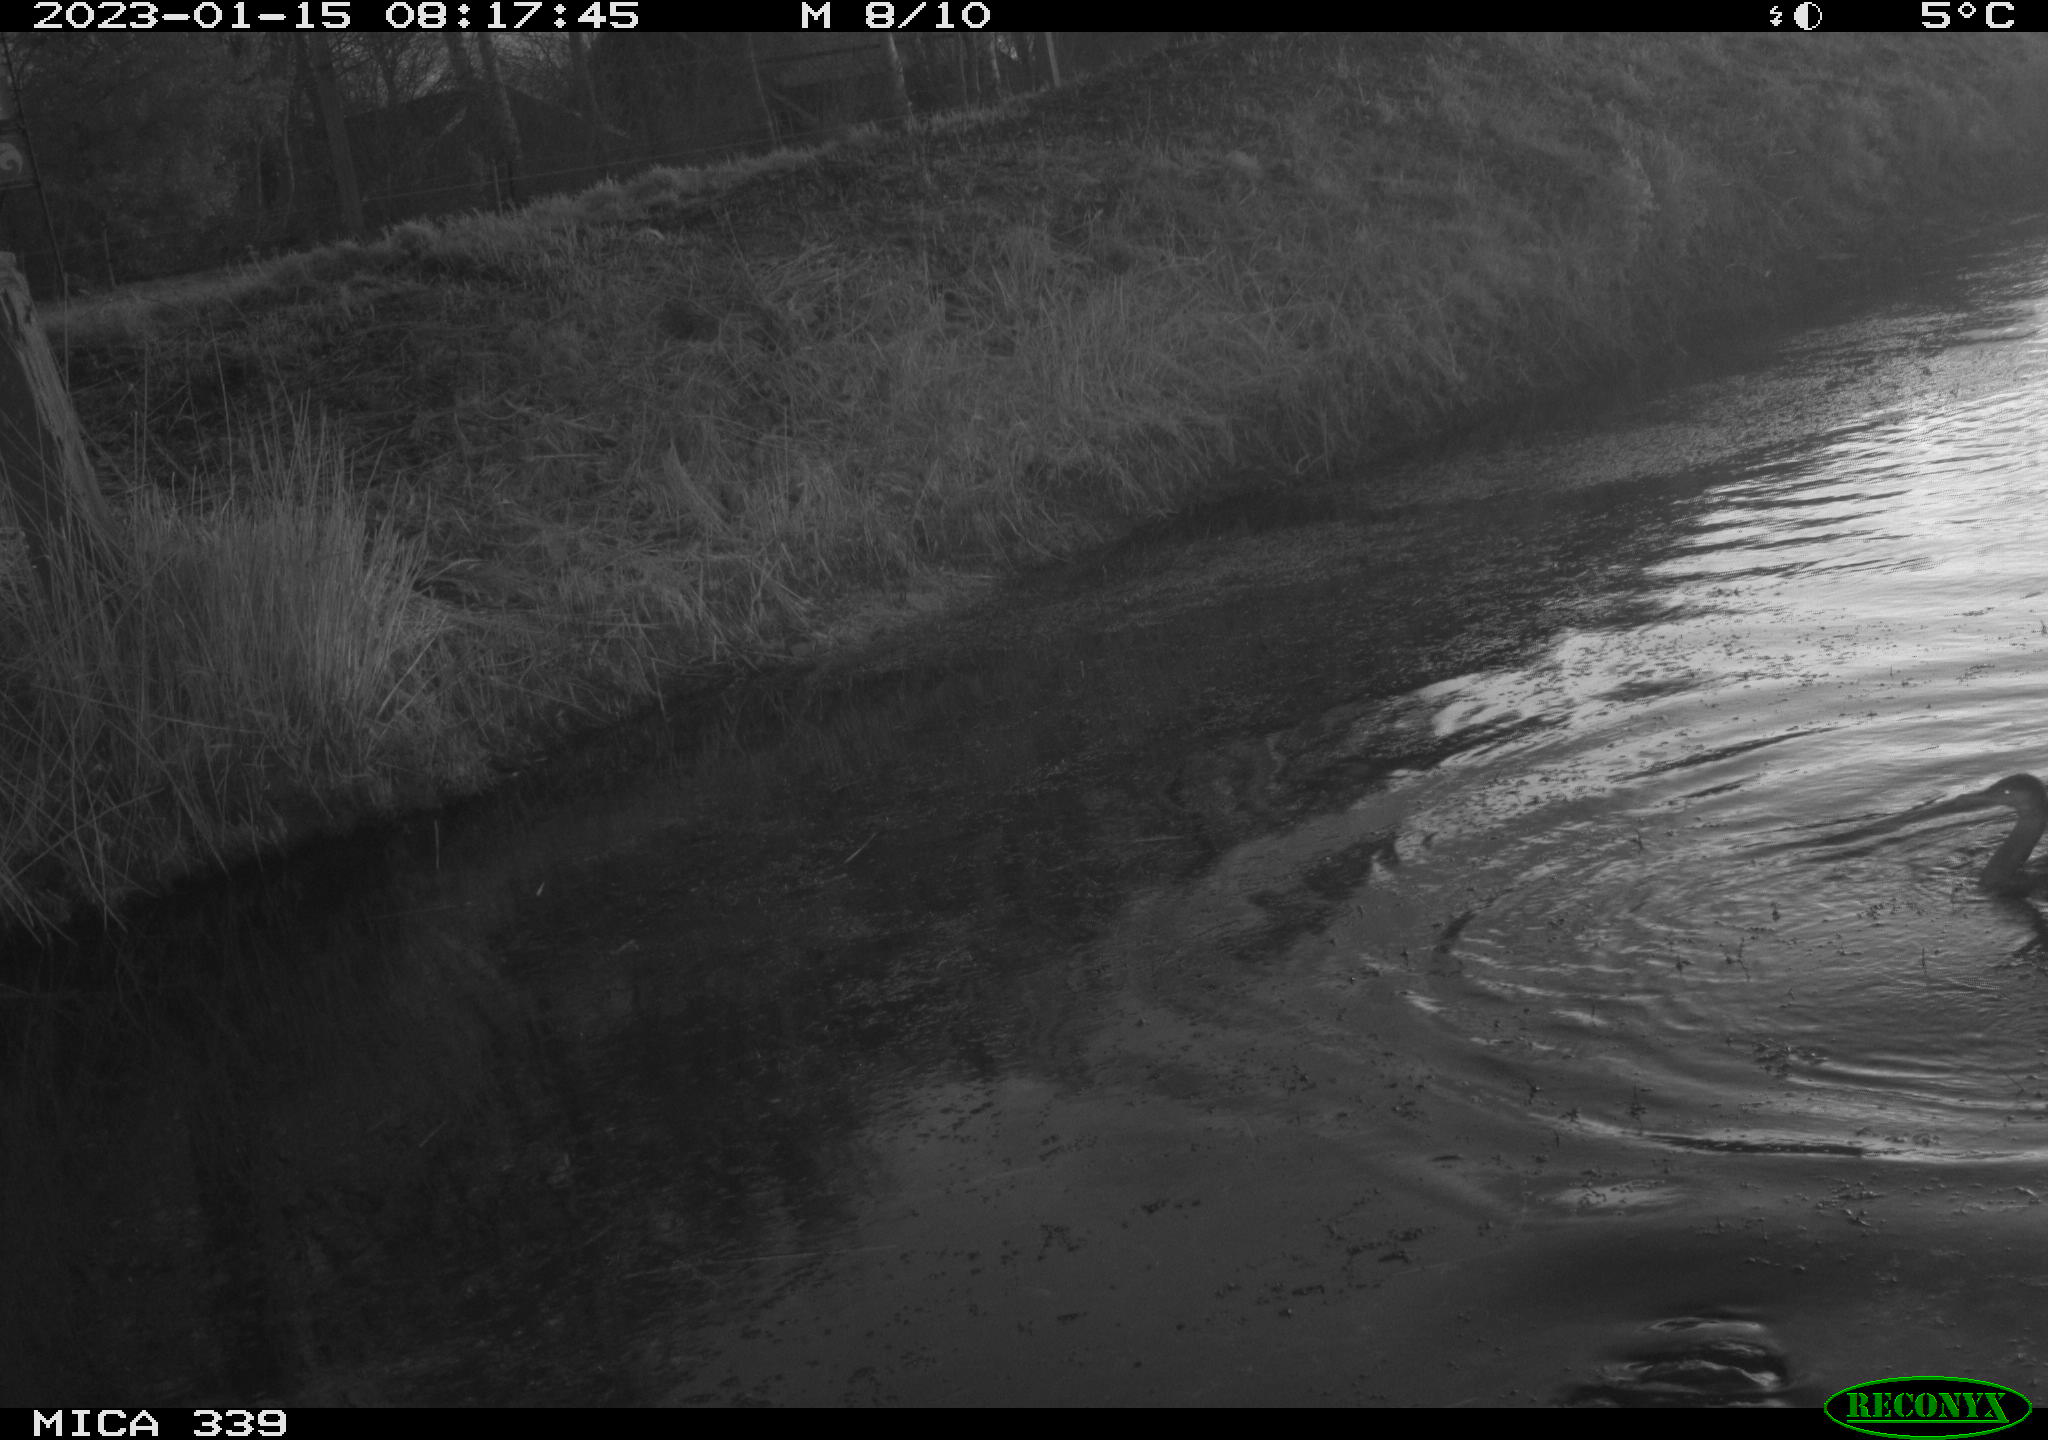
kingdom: Animalia
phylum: Chordata
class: Aves
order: Suliformes
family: Phalacrocoracidae
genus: Phalacrocorax
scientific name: Phalacrocorax carbo
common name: Great cormorant
